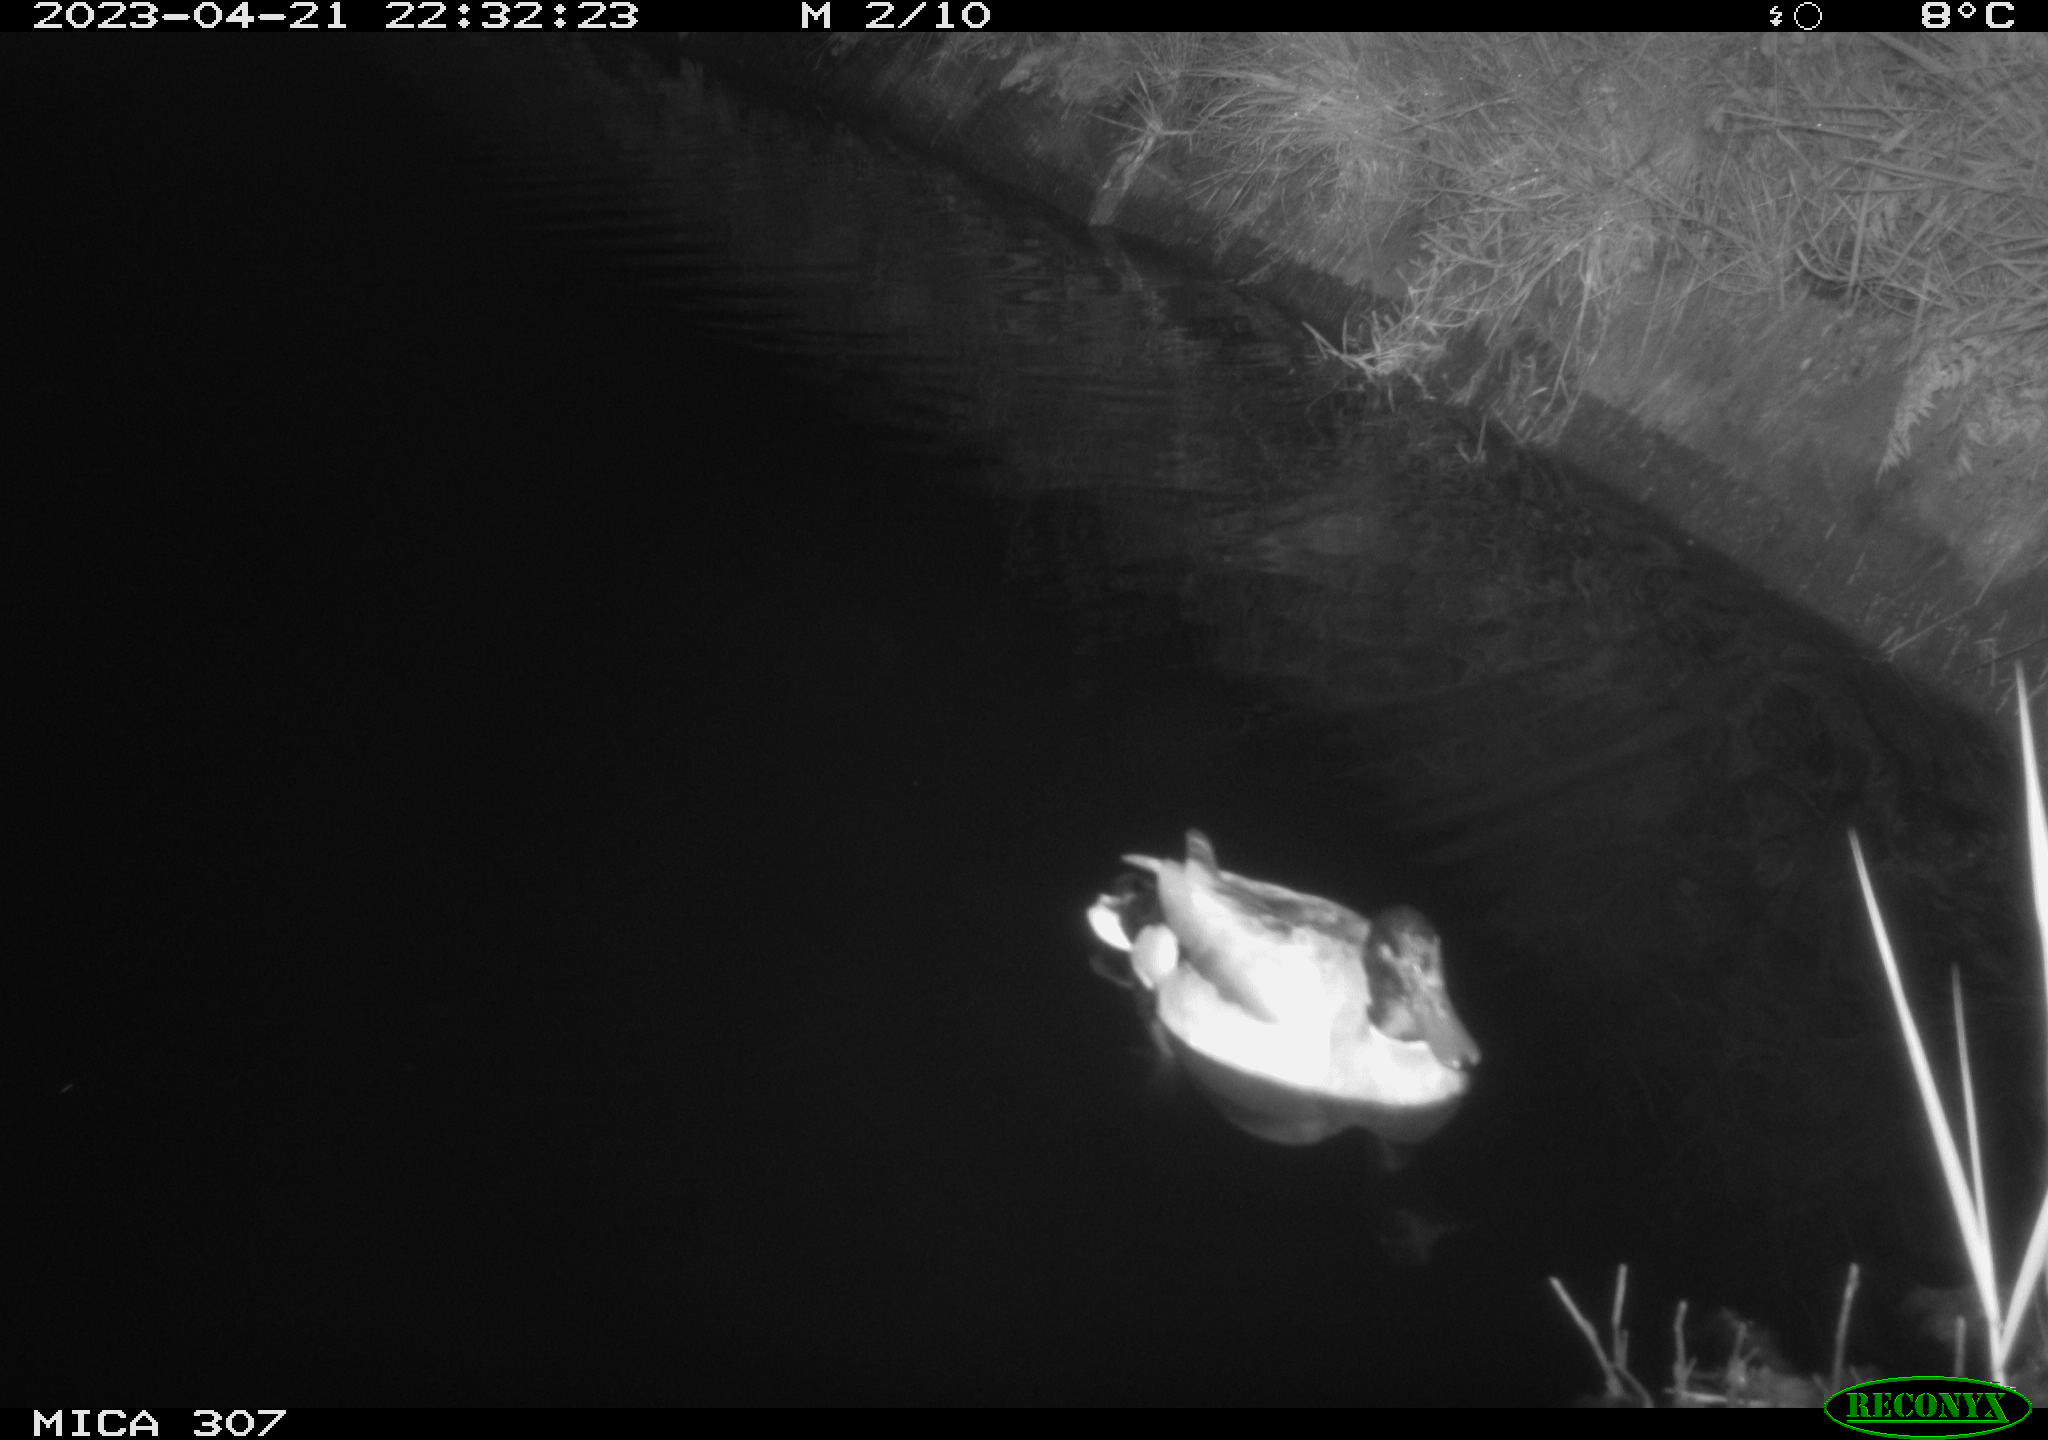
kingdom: Animalia
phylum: Chordata
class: Aves
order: Anseriformes
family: Anatidae
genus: Anas
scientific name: Anas
